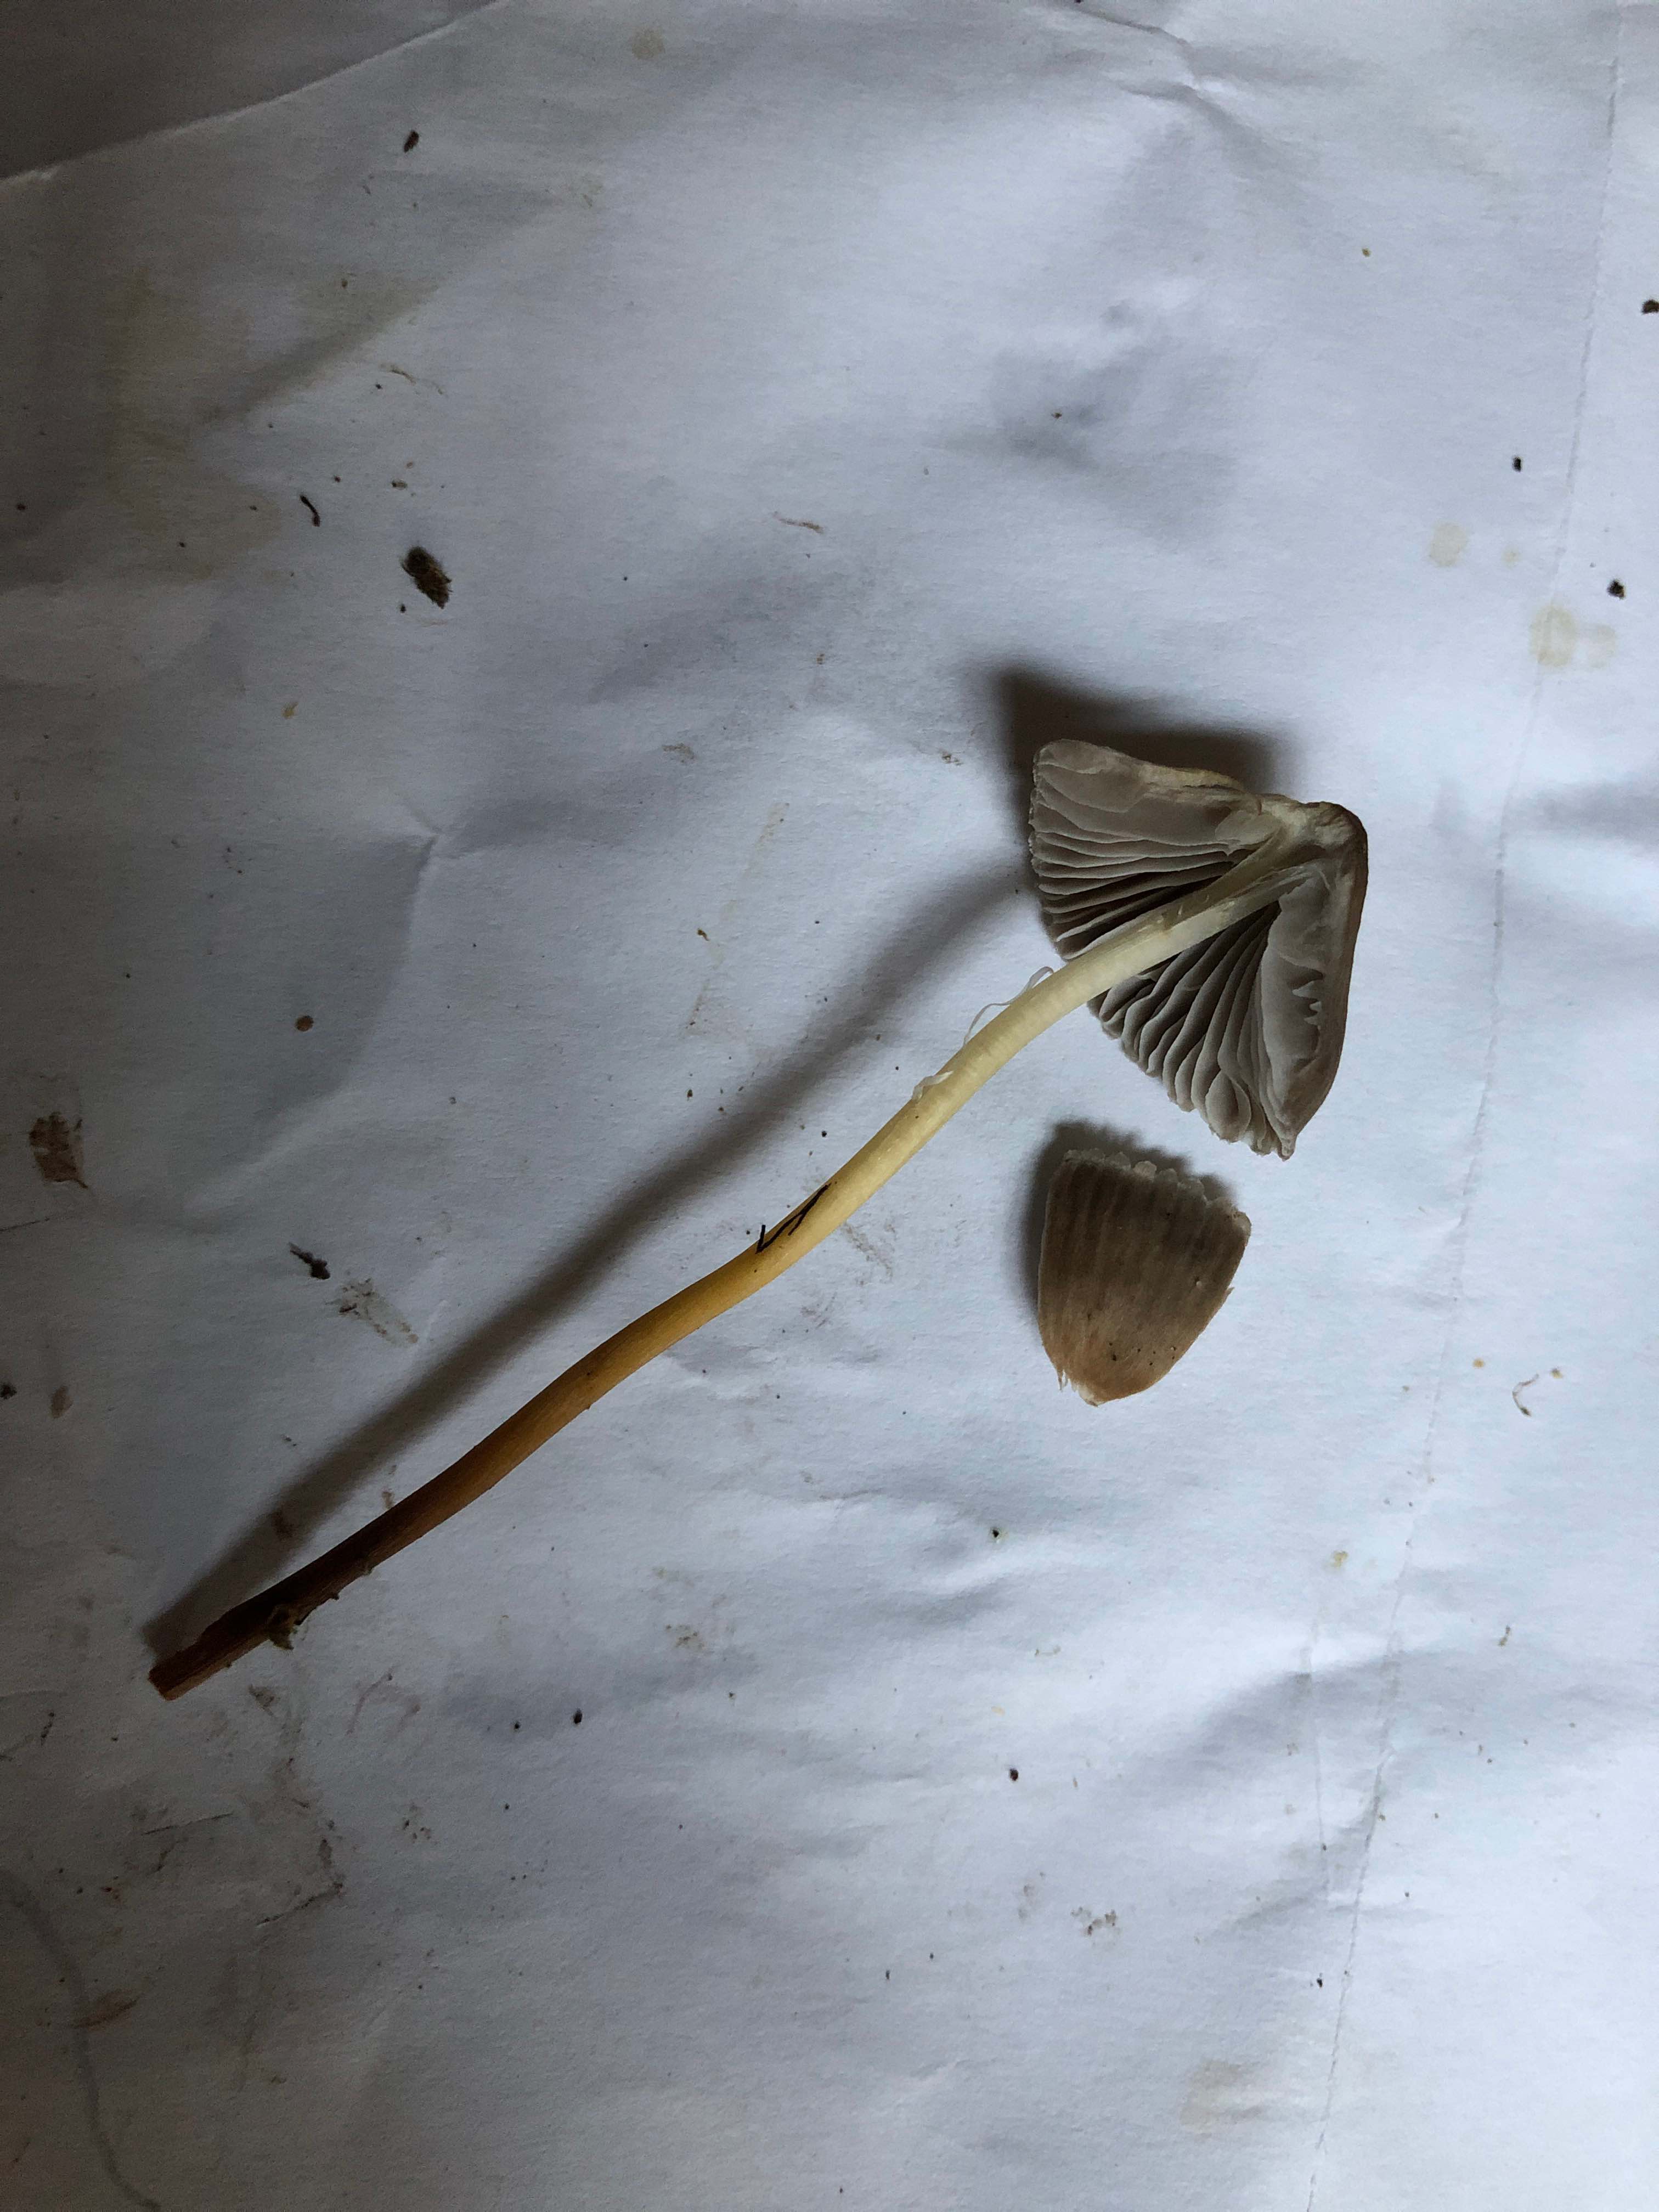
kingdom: Fungi
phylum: Basidiomycota
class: Agaricomycetes
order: Agaricales
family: Mycenaceae
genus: Mycena
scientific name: Mycena inclinata
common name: nikkende huesvamp
